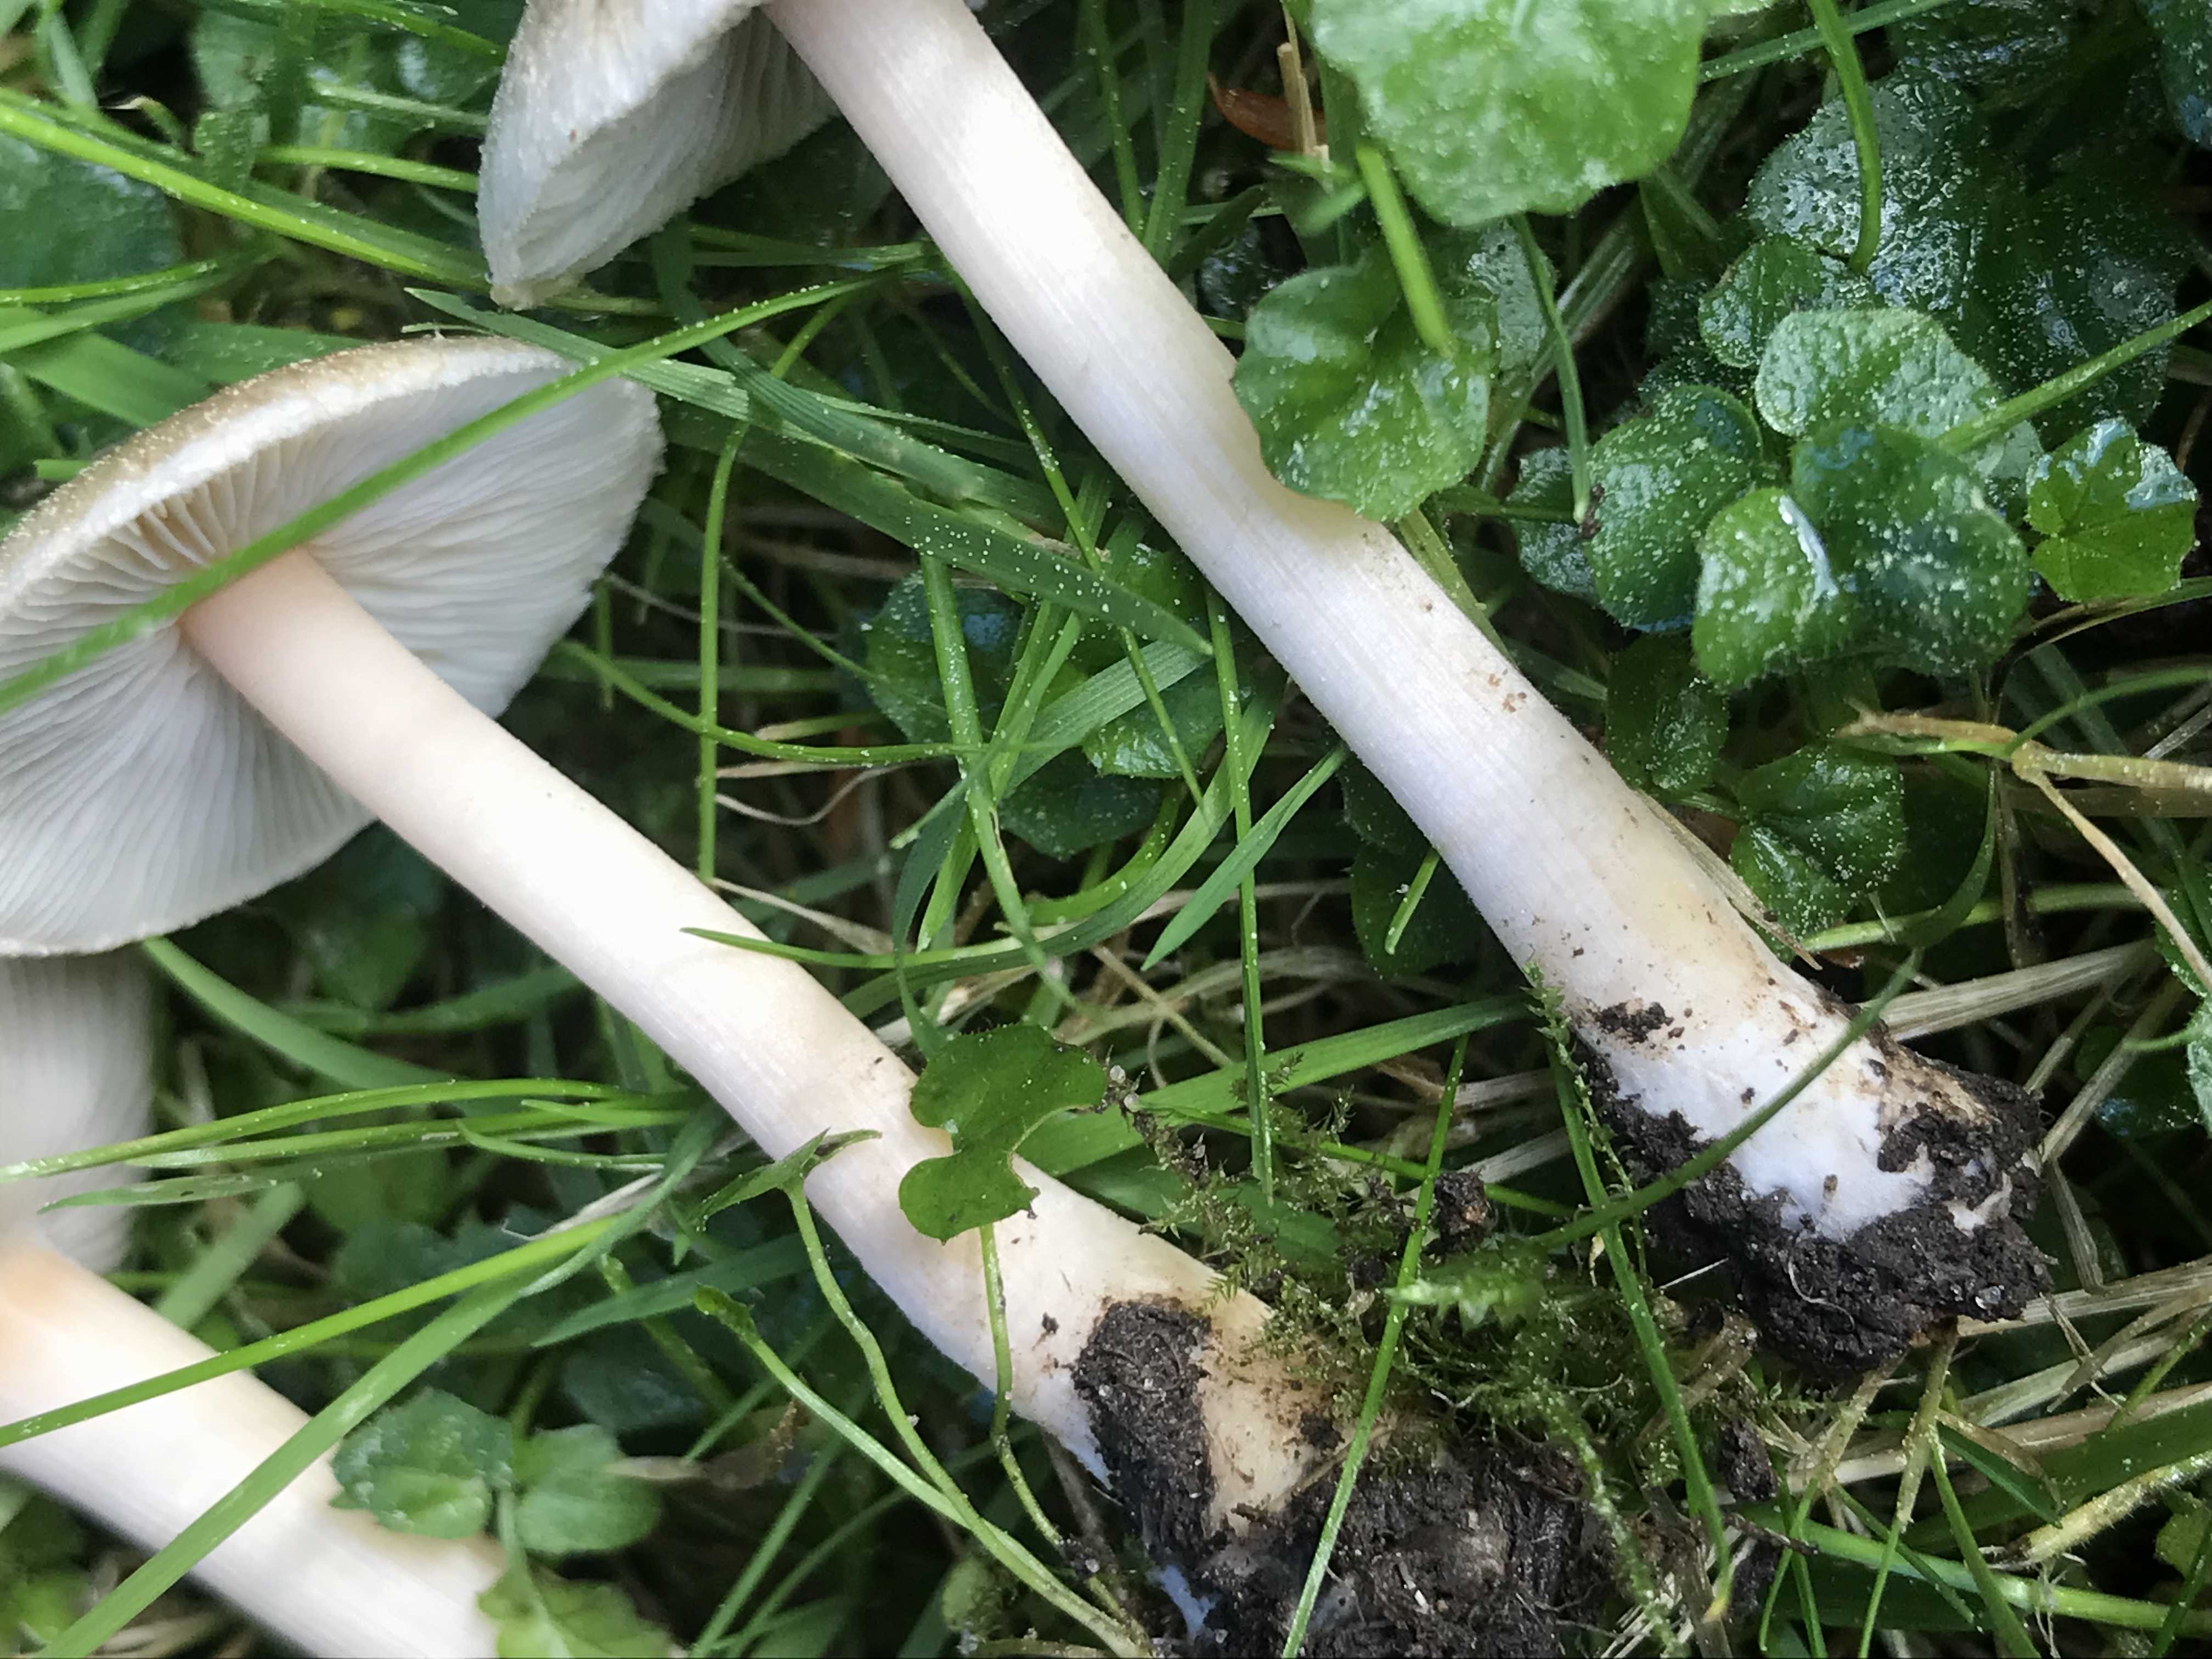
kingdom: Fungi
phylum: Basidiomycota
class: Agaricomycetes
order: Agaricales
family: Inocybaceae
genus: Inocybe
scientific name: Inocybe
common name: trævlhat
